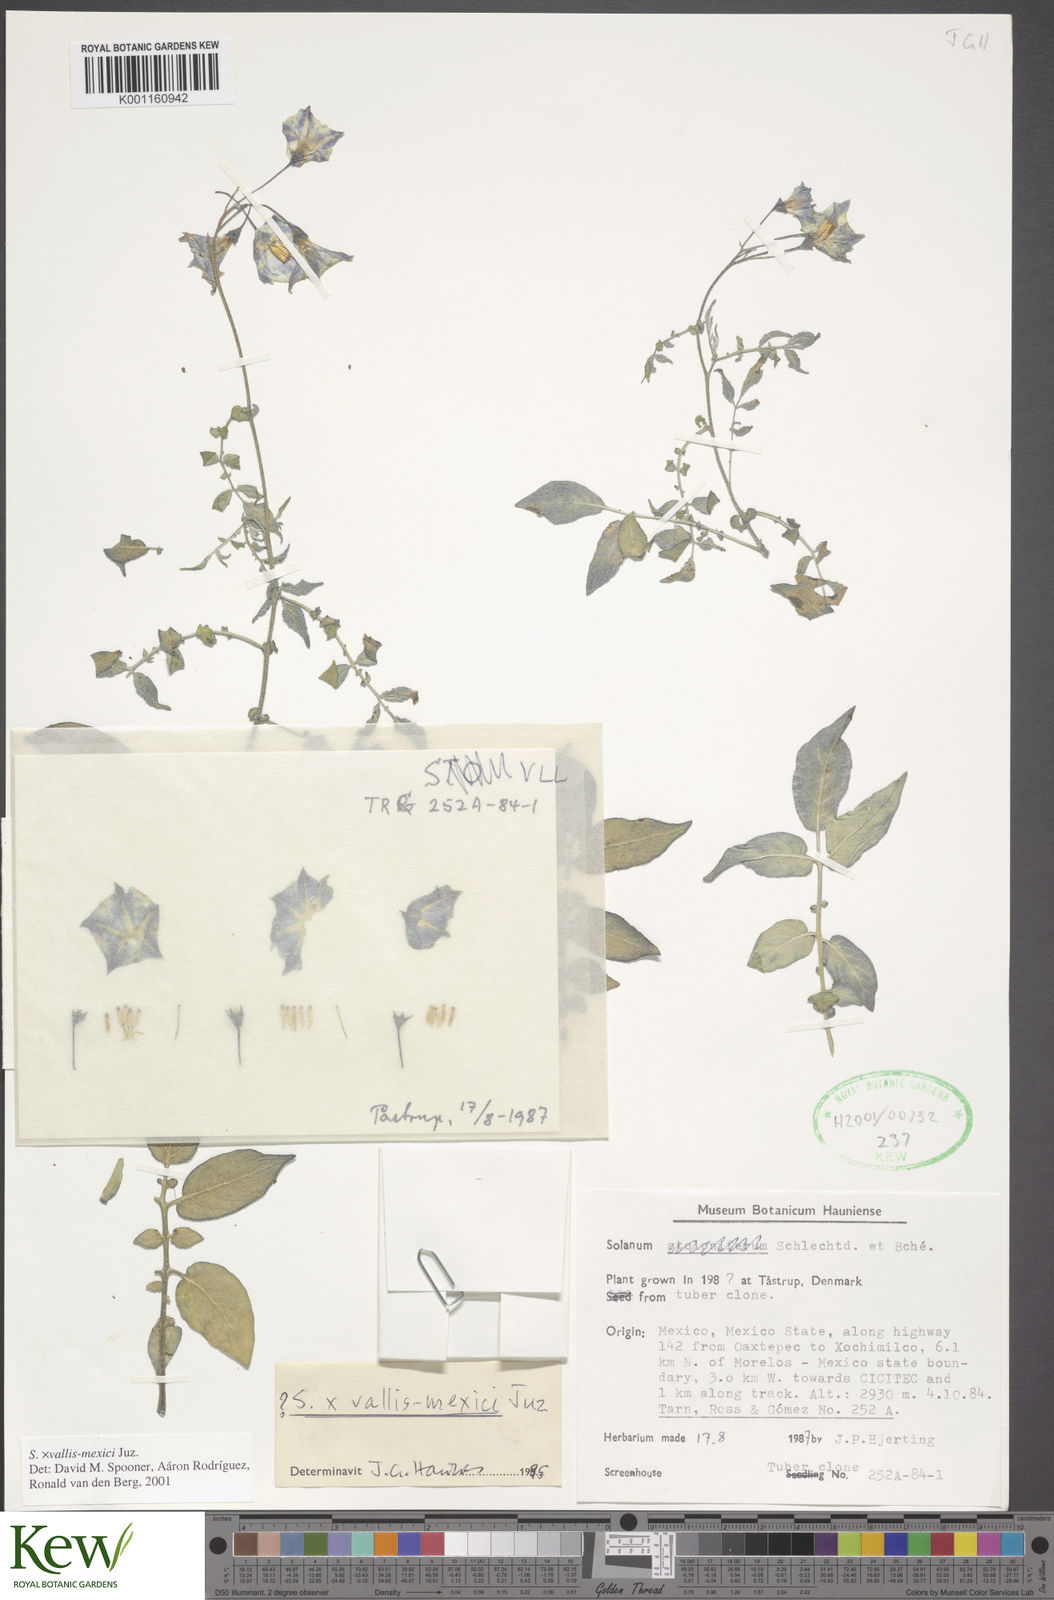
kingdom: Plantae
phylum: Tracheophyta
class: Magnoliopsida
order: Solanales
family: Solanaceae
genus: Solanum
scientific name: Solanum vallis-mexici
